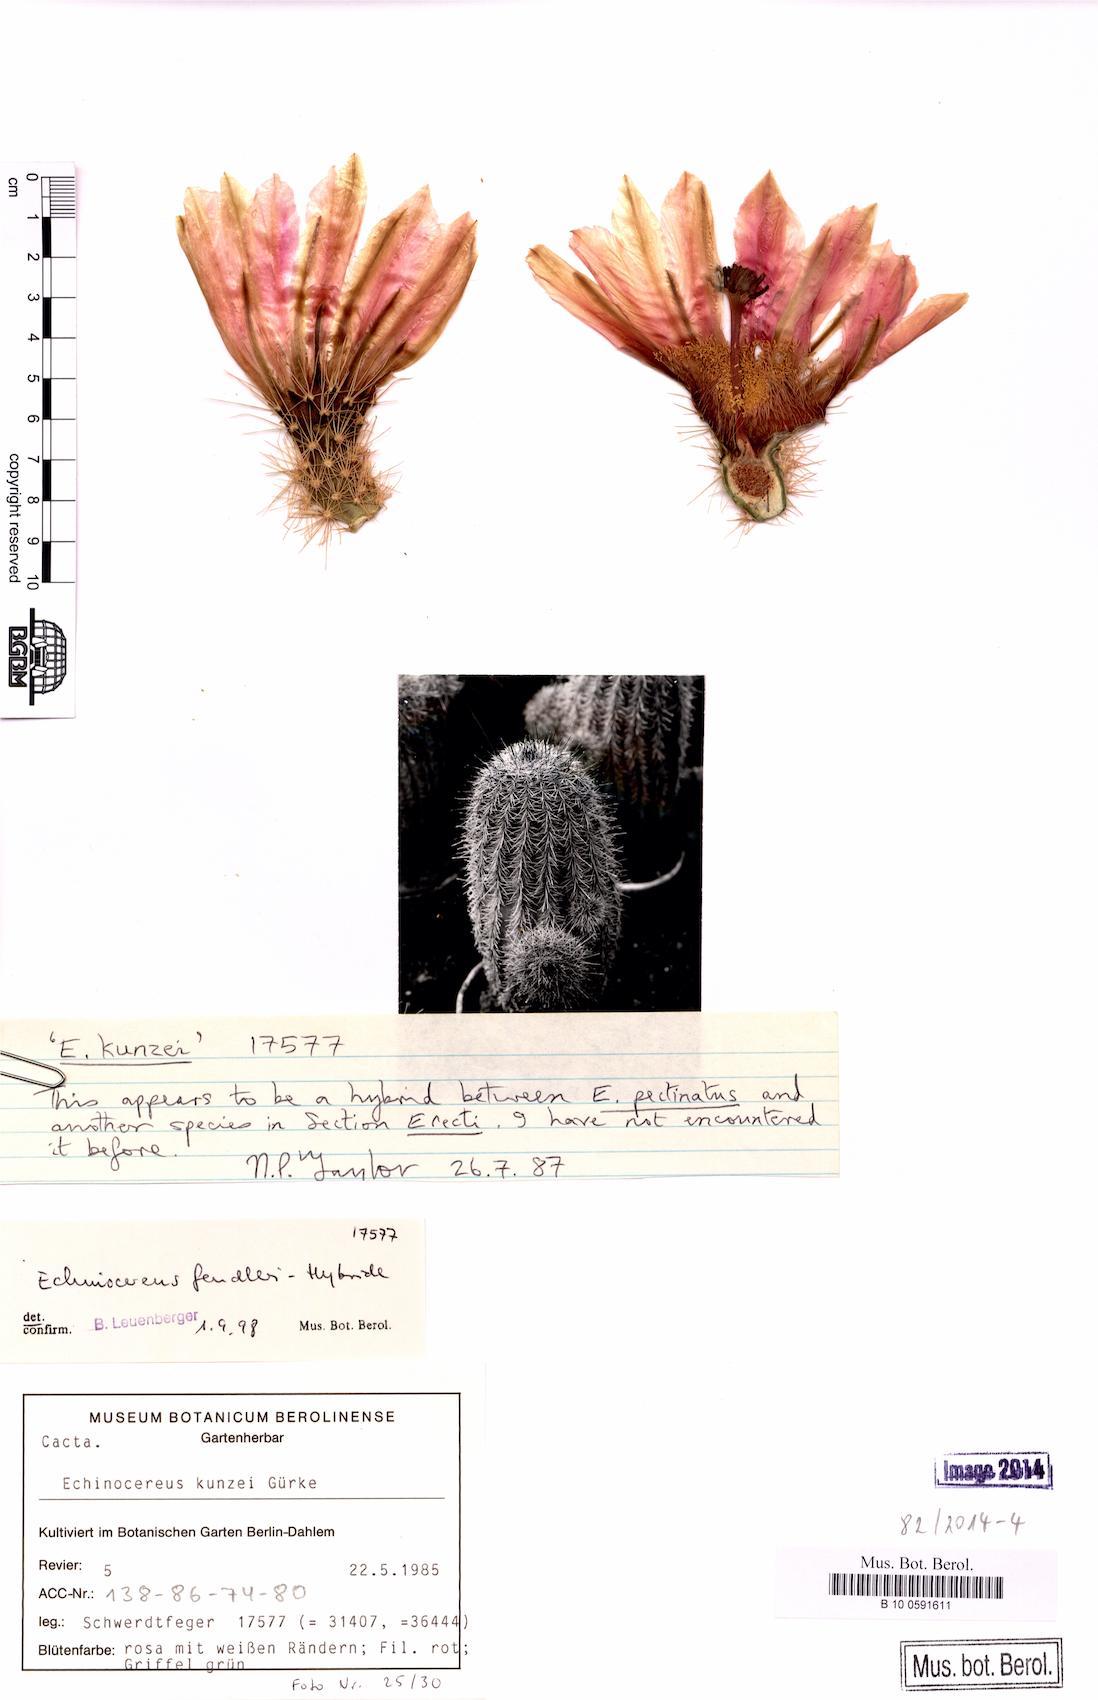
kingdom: Plantae
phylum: Tracheophyta
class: Magnoliopsida
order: Caryophyllales
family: Cactaceae
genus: Echinocereus
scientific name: Echinocereus kunzei
